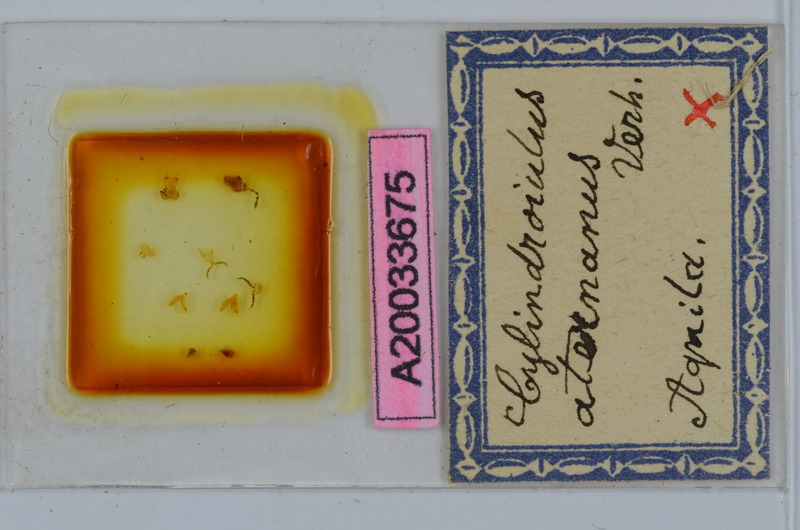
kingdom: Animalia
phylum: Arthropoda
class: Diplopoda
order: Julida
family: Julidae
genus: Cylindroiulus
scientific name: Cylindroiulus aternanus
